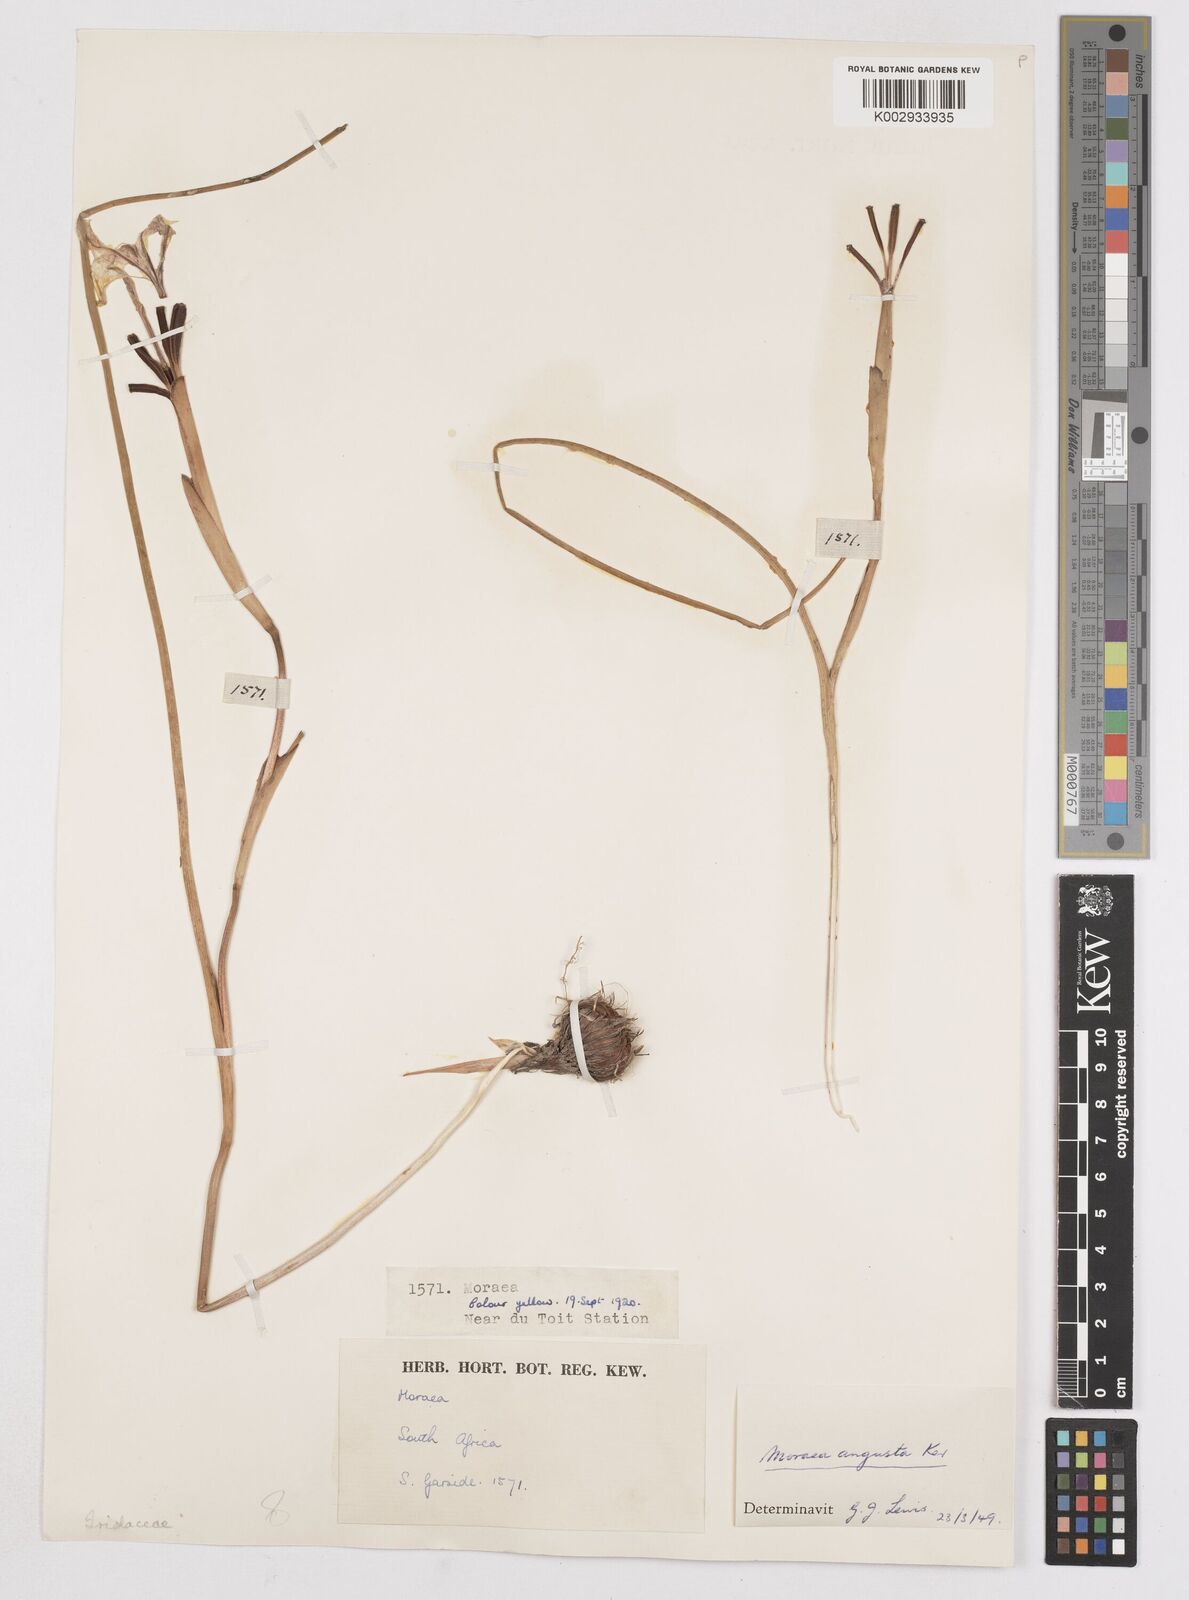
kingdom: Plantae
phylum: Tracheophyta
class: Liliopsida
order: Asparagales
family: Iridaceae
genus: Moraea
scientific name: Moraea angusta
